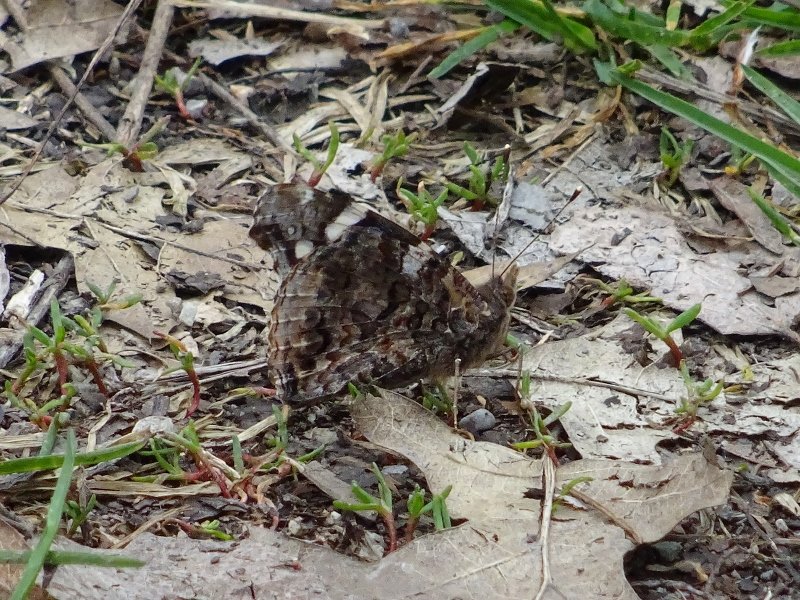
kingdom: Animalia
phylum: Arthropoda
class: Insecta
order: Lepidoptera
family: Nymphalidae
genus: Vanessa
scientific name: Vanessa atalanta
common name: Red Admiral
